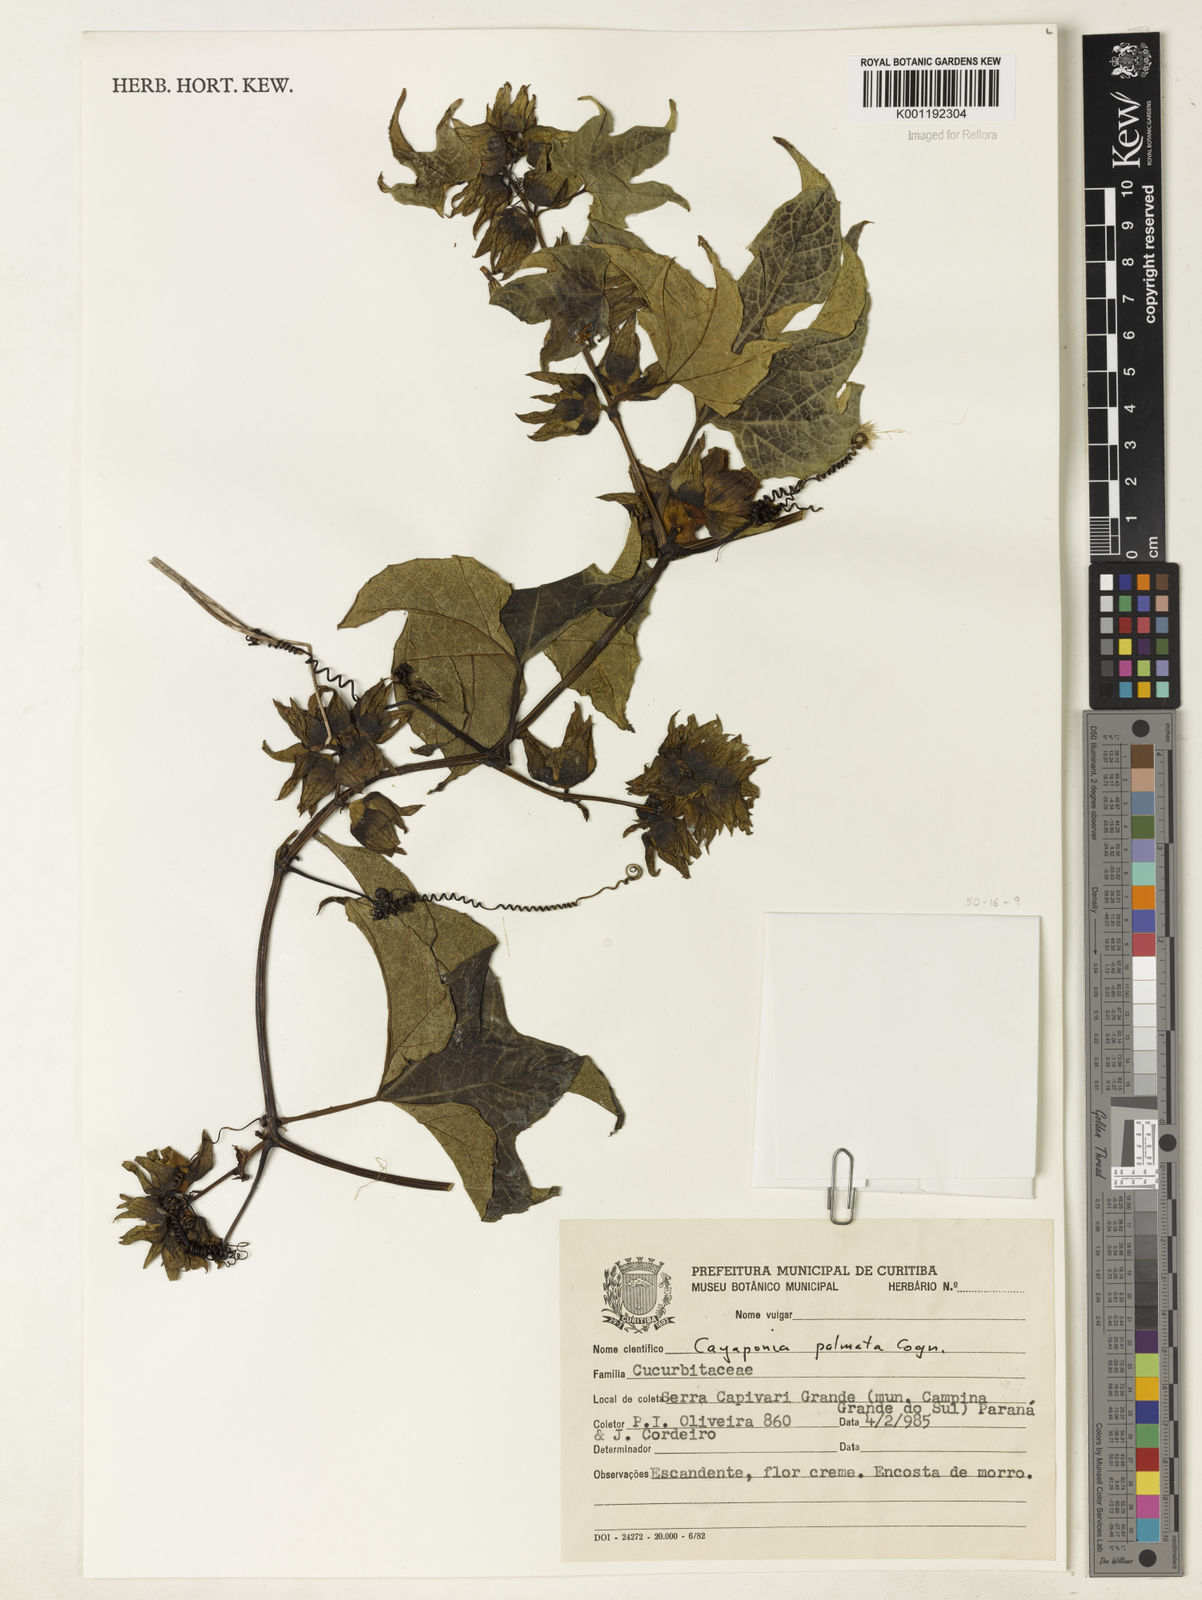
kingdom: Plantae
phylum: Tracheophyta
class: Magnoliopsida
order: Cucurbitales
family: Cucurbitaceae
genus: Cayaponia
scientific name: Cayaponia palmata
